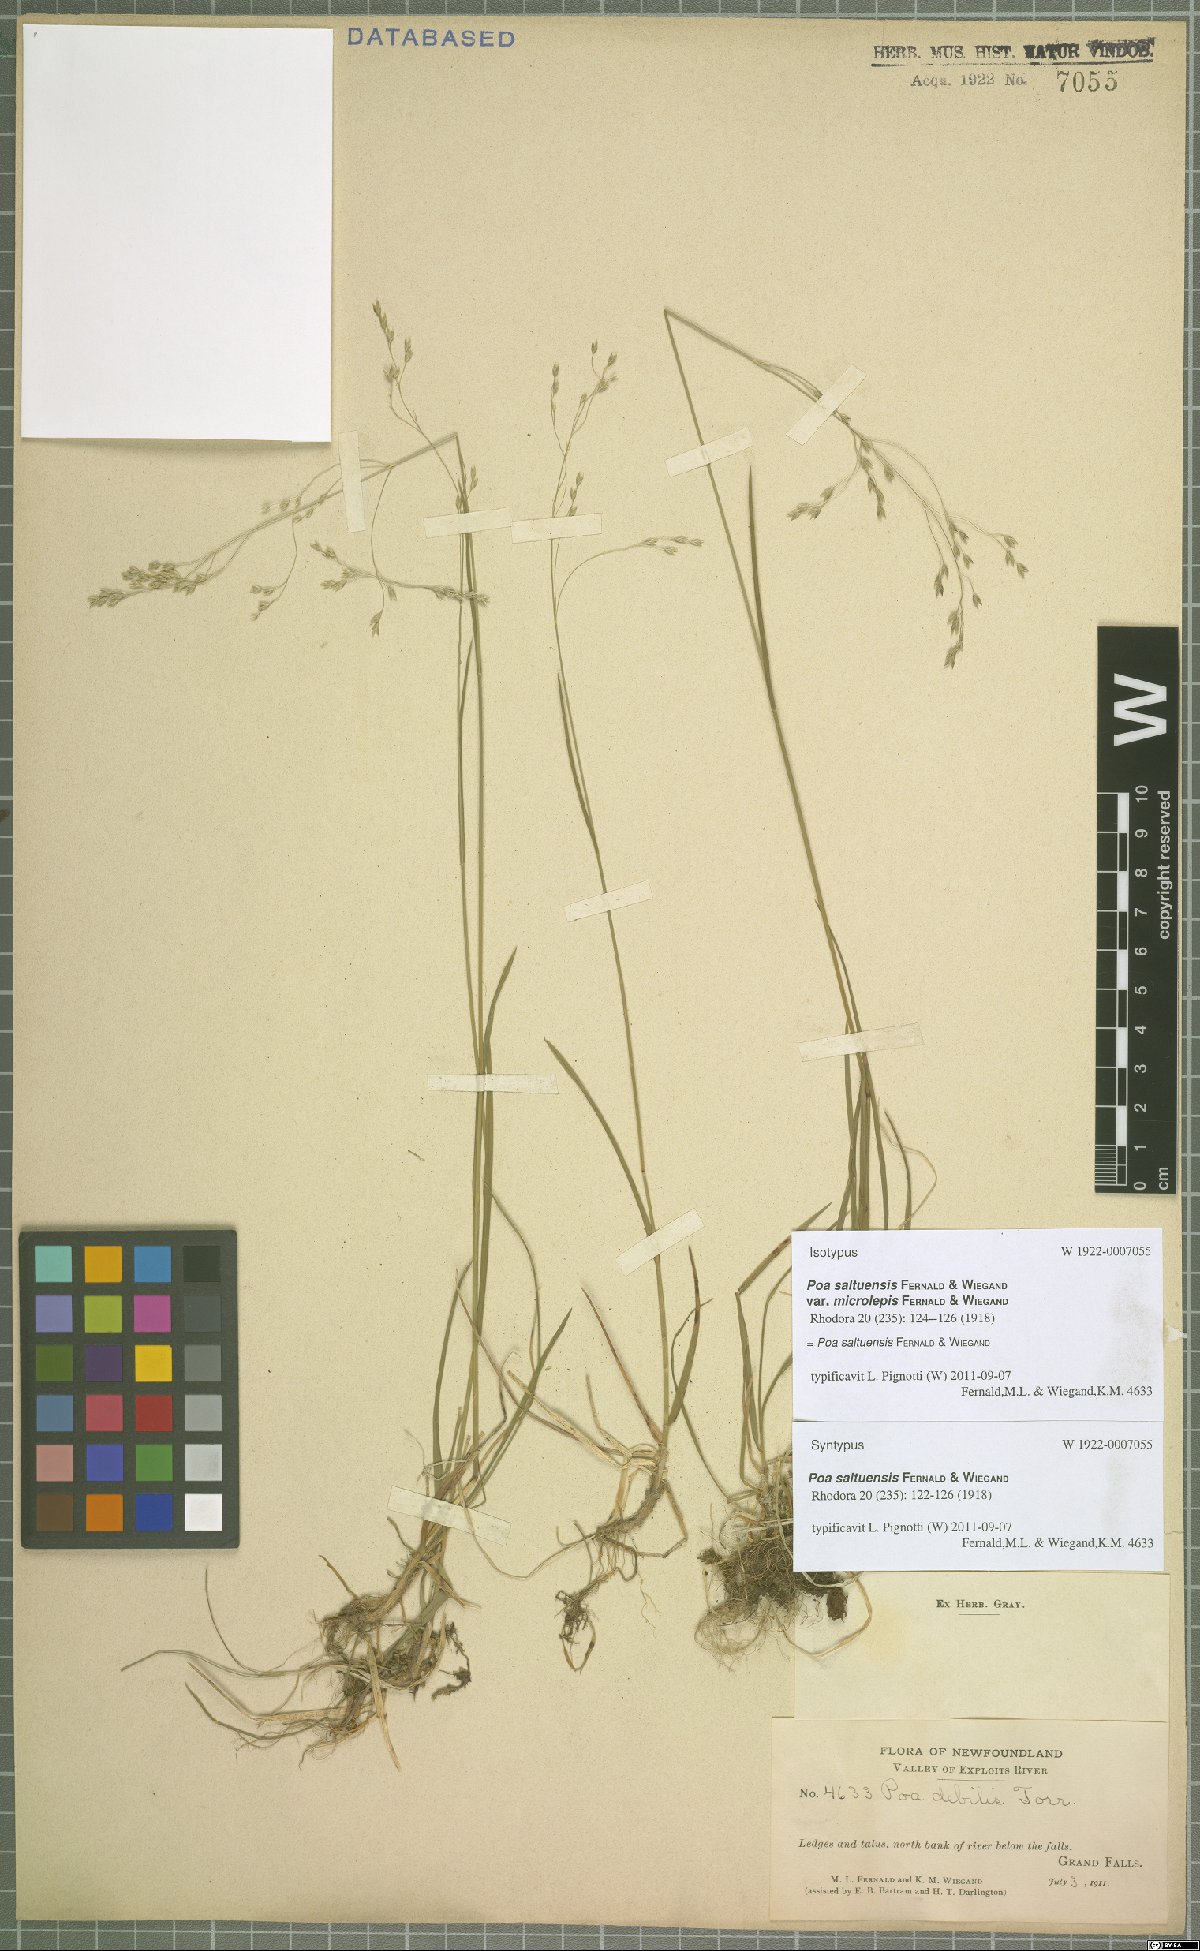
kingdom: Plantae
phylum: Tracheophyta
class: Liliopsida
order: Poales
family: Poaceae
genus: Poa
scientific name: Poa saltuensis
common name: Bushy pasture speargrass
